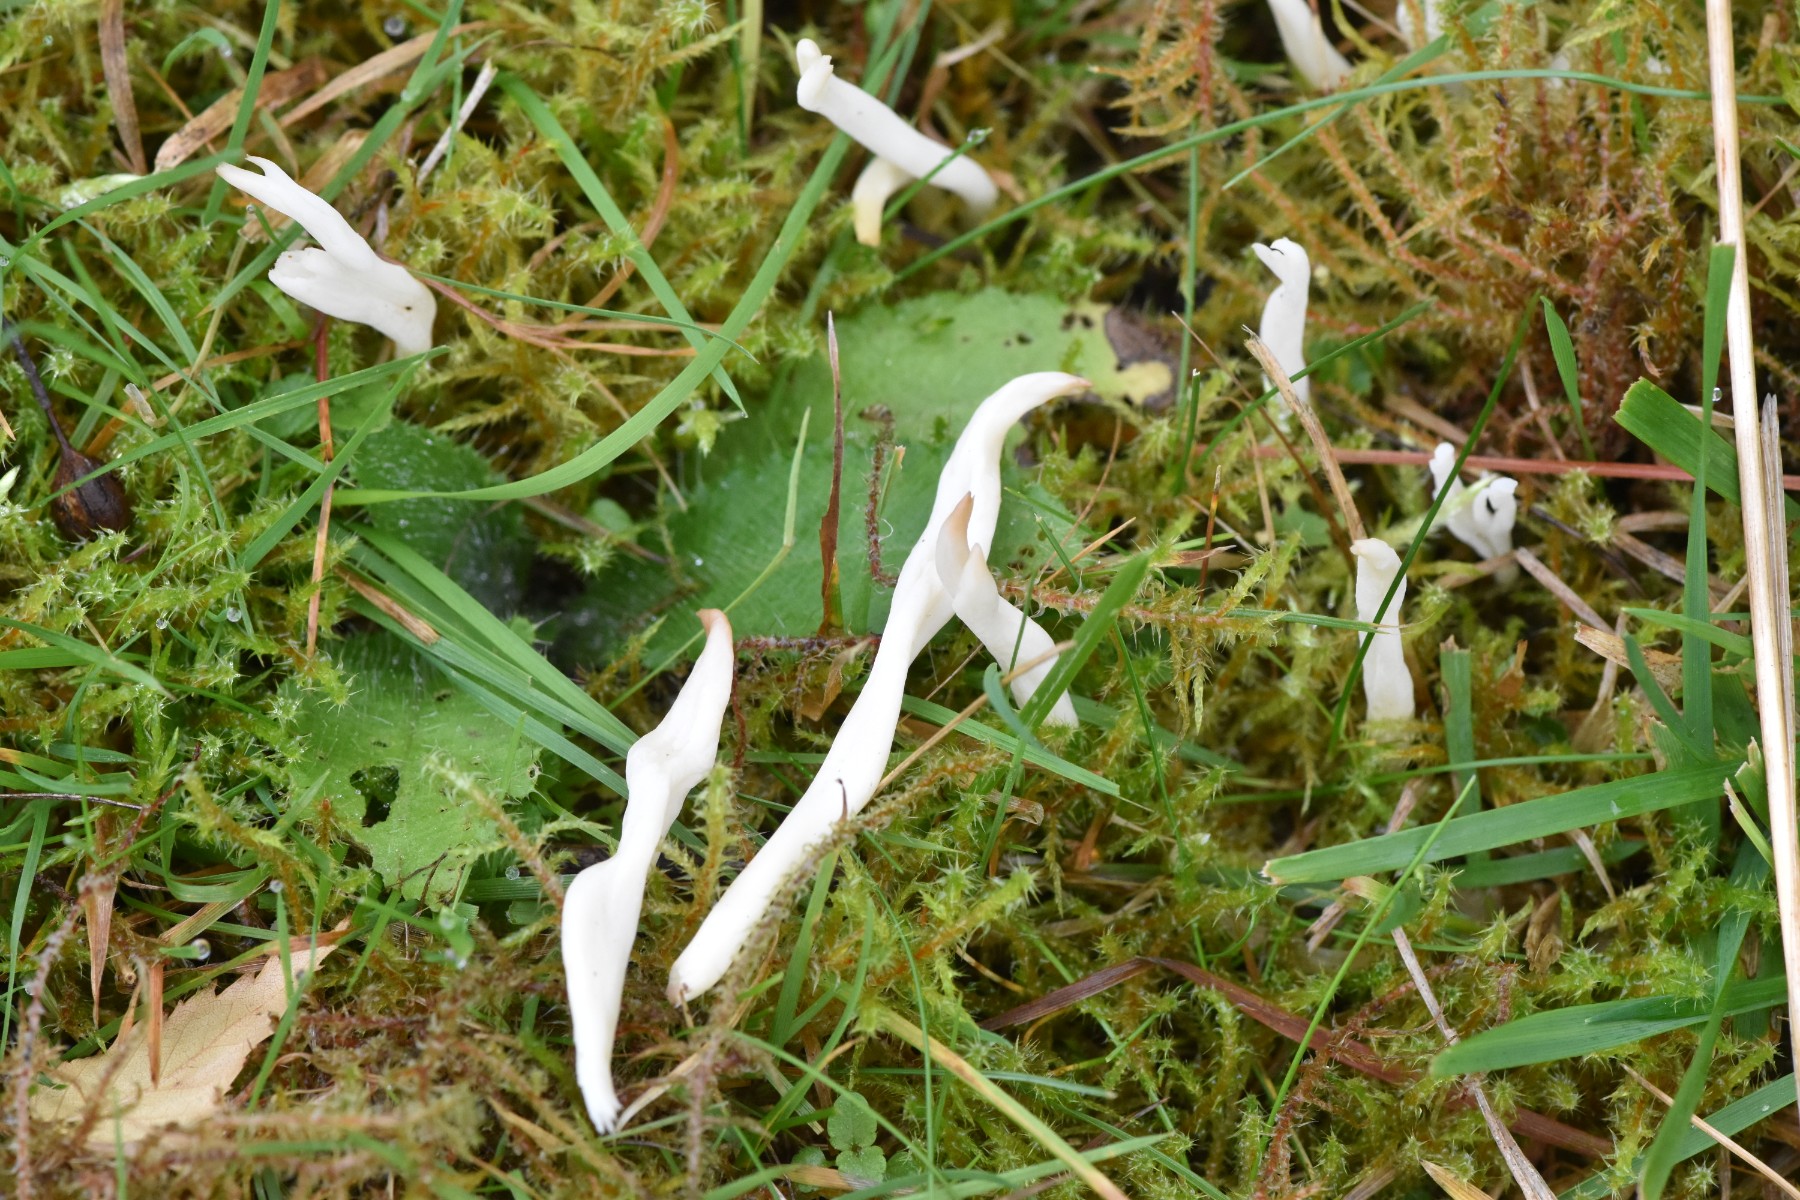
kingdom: Fungi
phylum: Basidiomycota
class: Agaricomycetes
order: Agaricales
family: Clavariaceae
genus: Clavaria
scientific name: Clavaria
